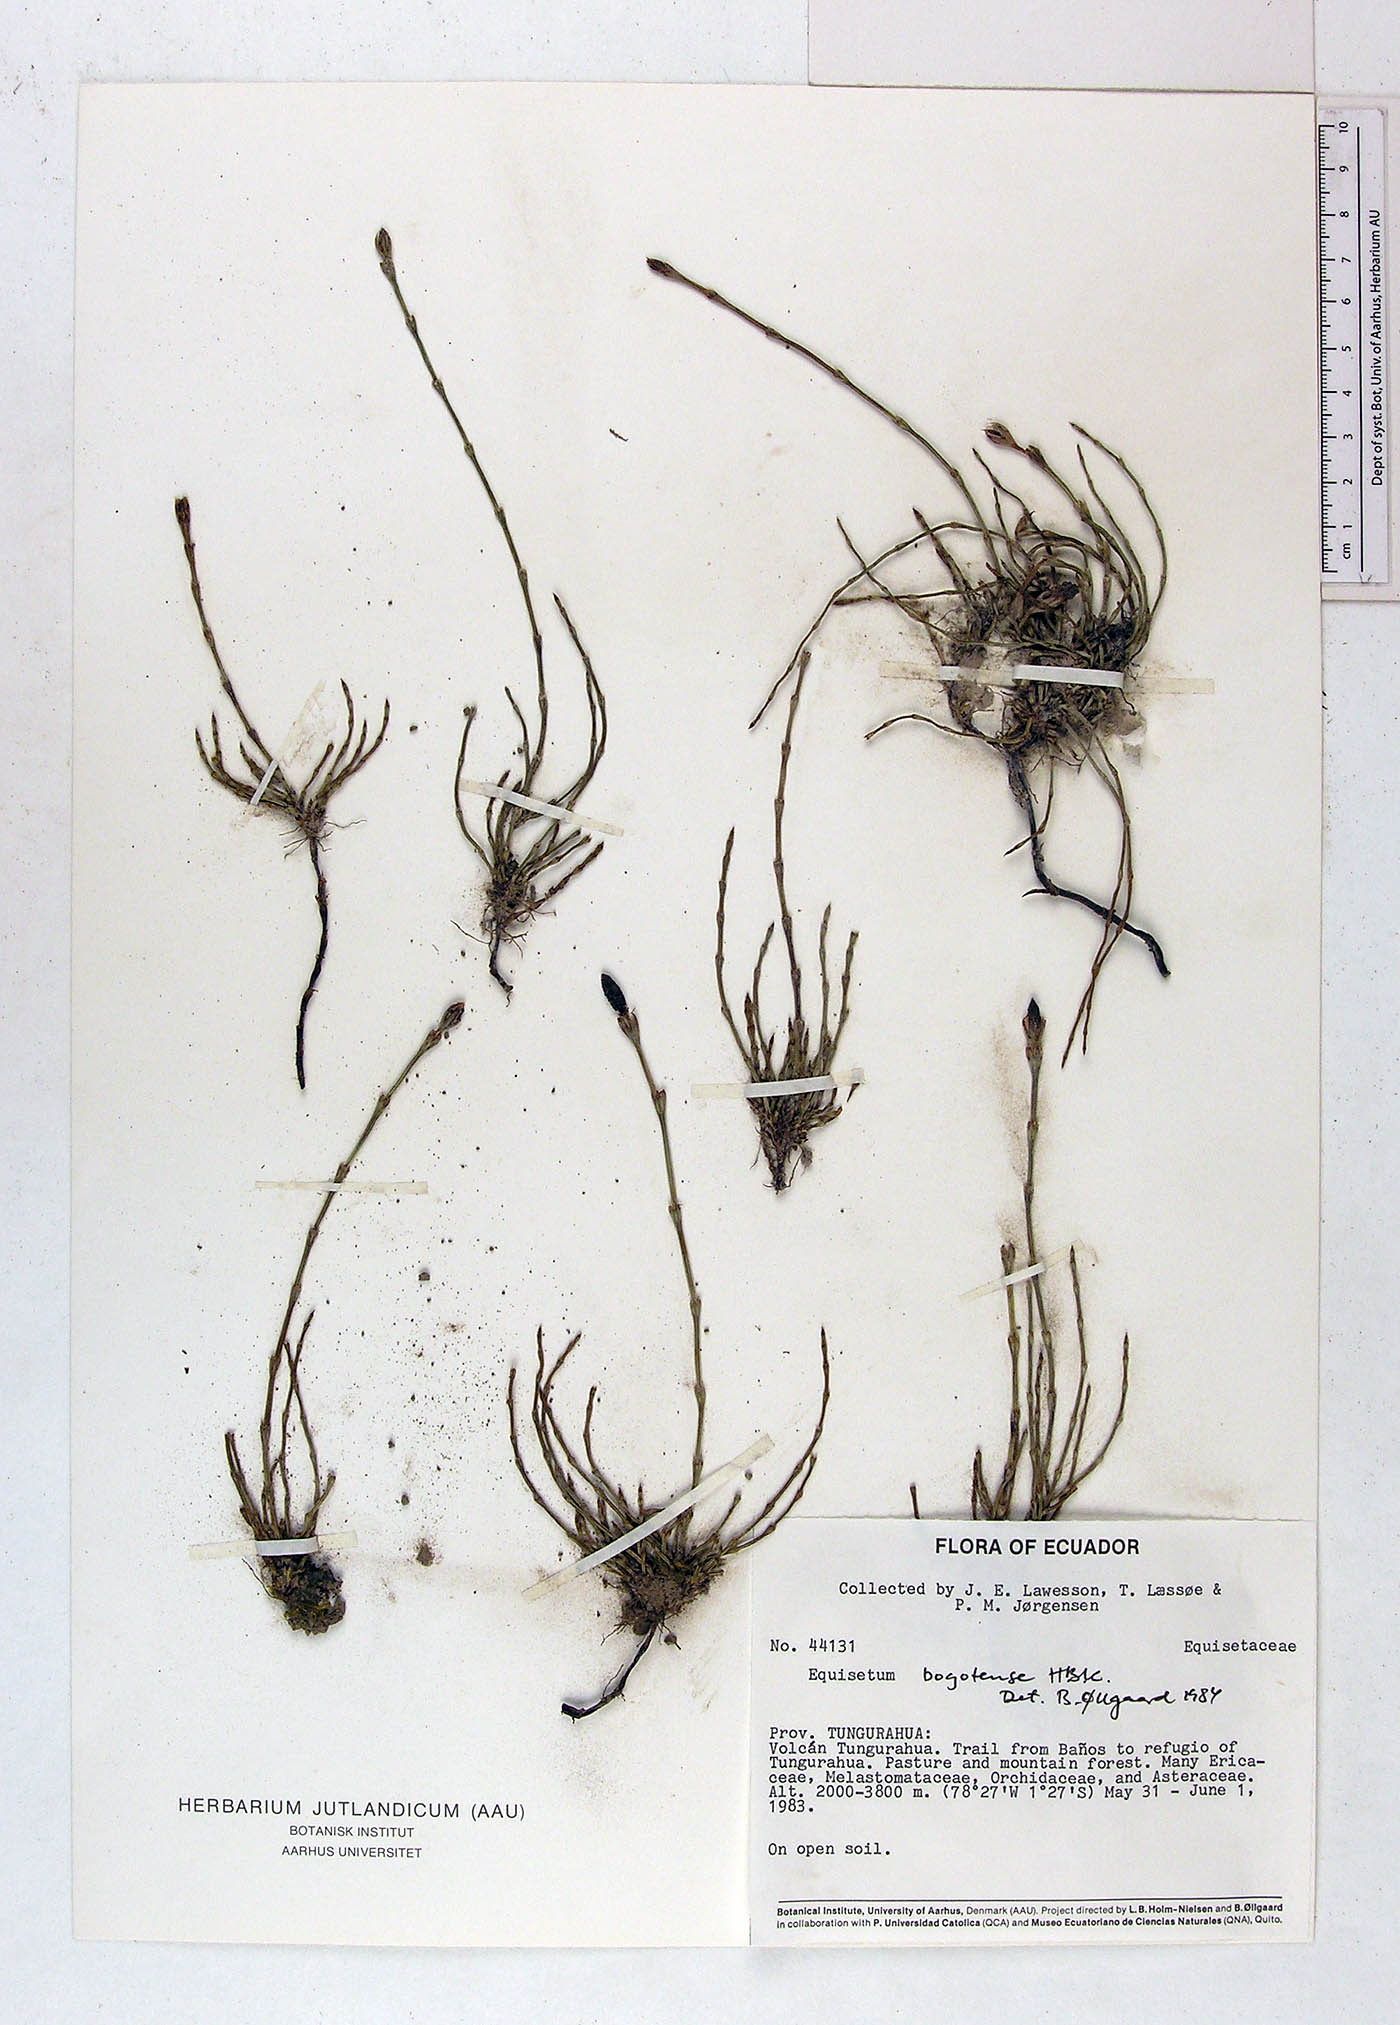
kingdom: Plantae
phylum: Tracheophyta
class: Polypodiopsida
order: Equisetales
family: Equisetaceae
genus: Equisetum
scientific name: Equisetum bogotense
